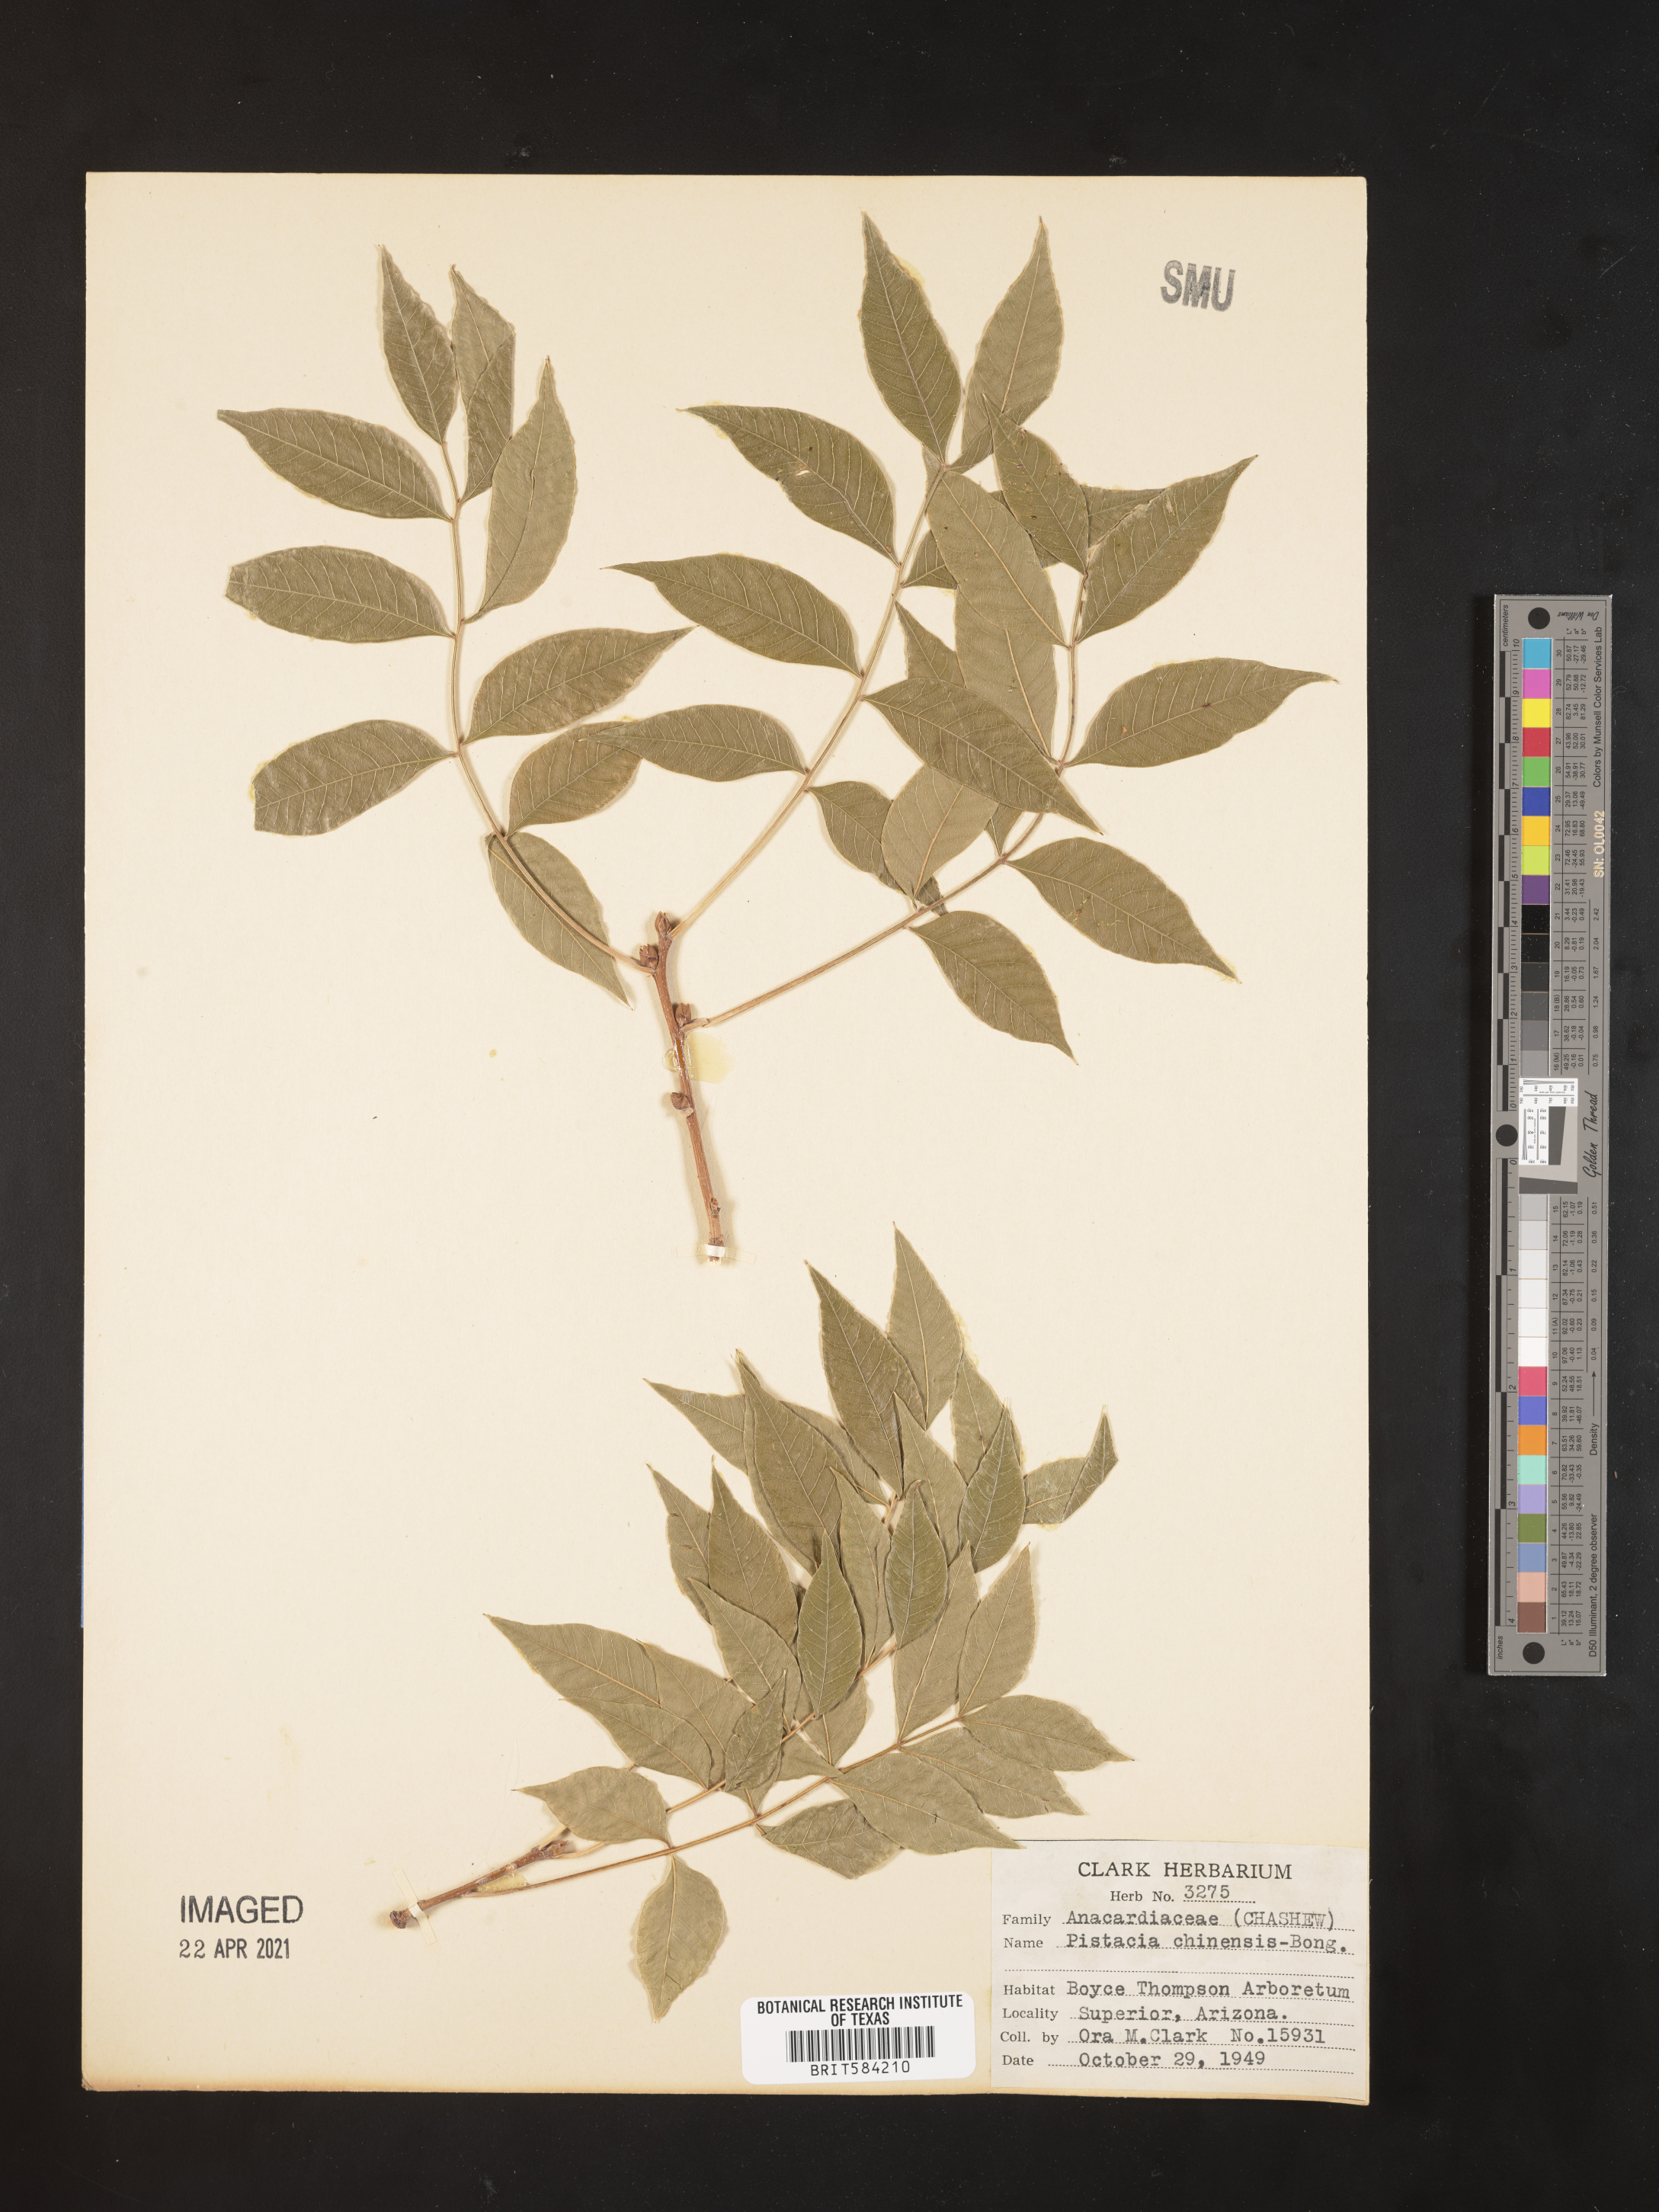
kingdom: Plantae
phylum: Tracheophyta
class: Magnoliopsida
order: Sapindales
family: Anacardiaceae
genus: Pistacia
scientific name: Pistacia chinensis
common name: Chinese pistache
